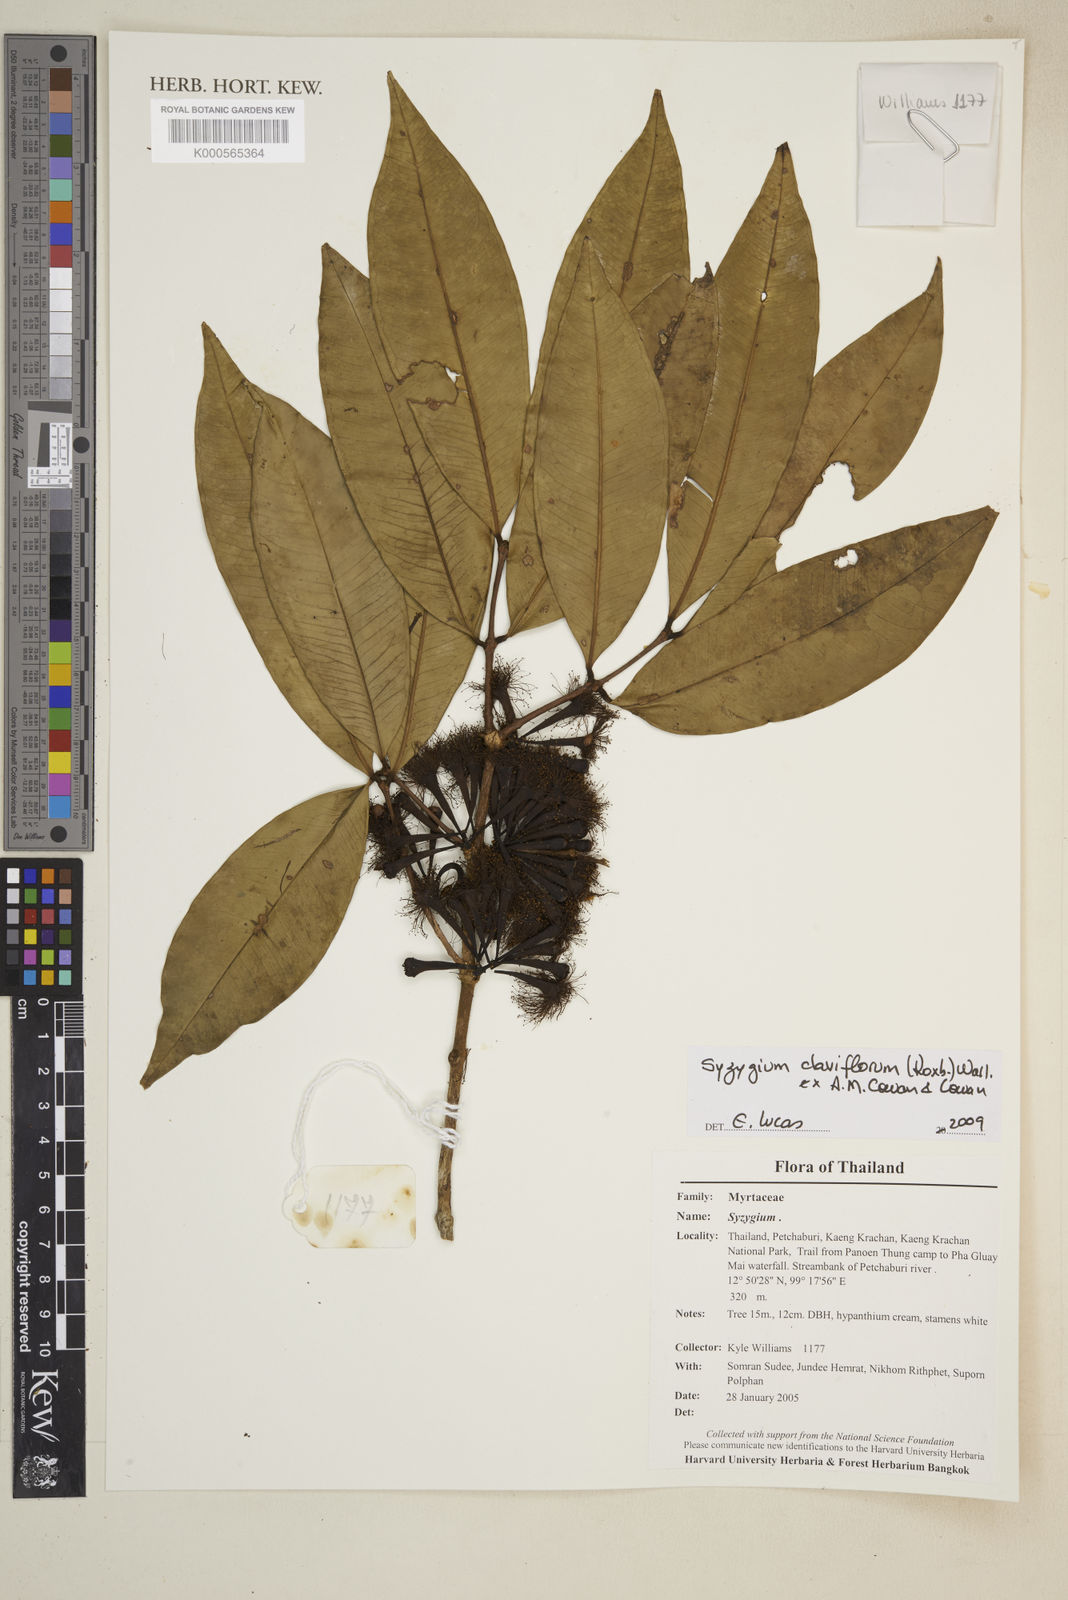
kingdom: Plantae
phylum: Tracheophyta
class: Magnoliopsida
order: Myrtales
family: Myrtaceae
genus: Syzygium
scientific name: Syzygium claviflorum
